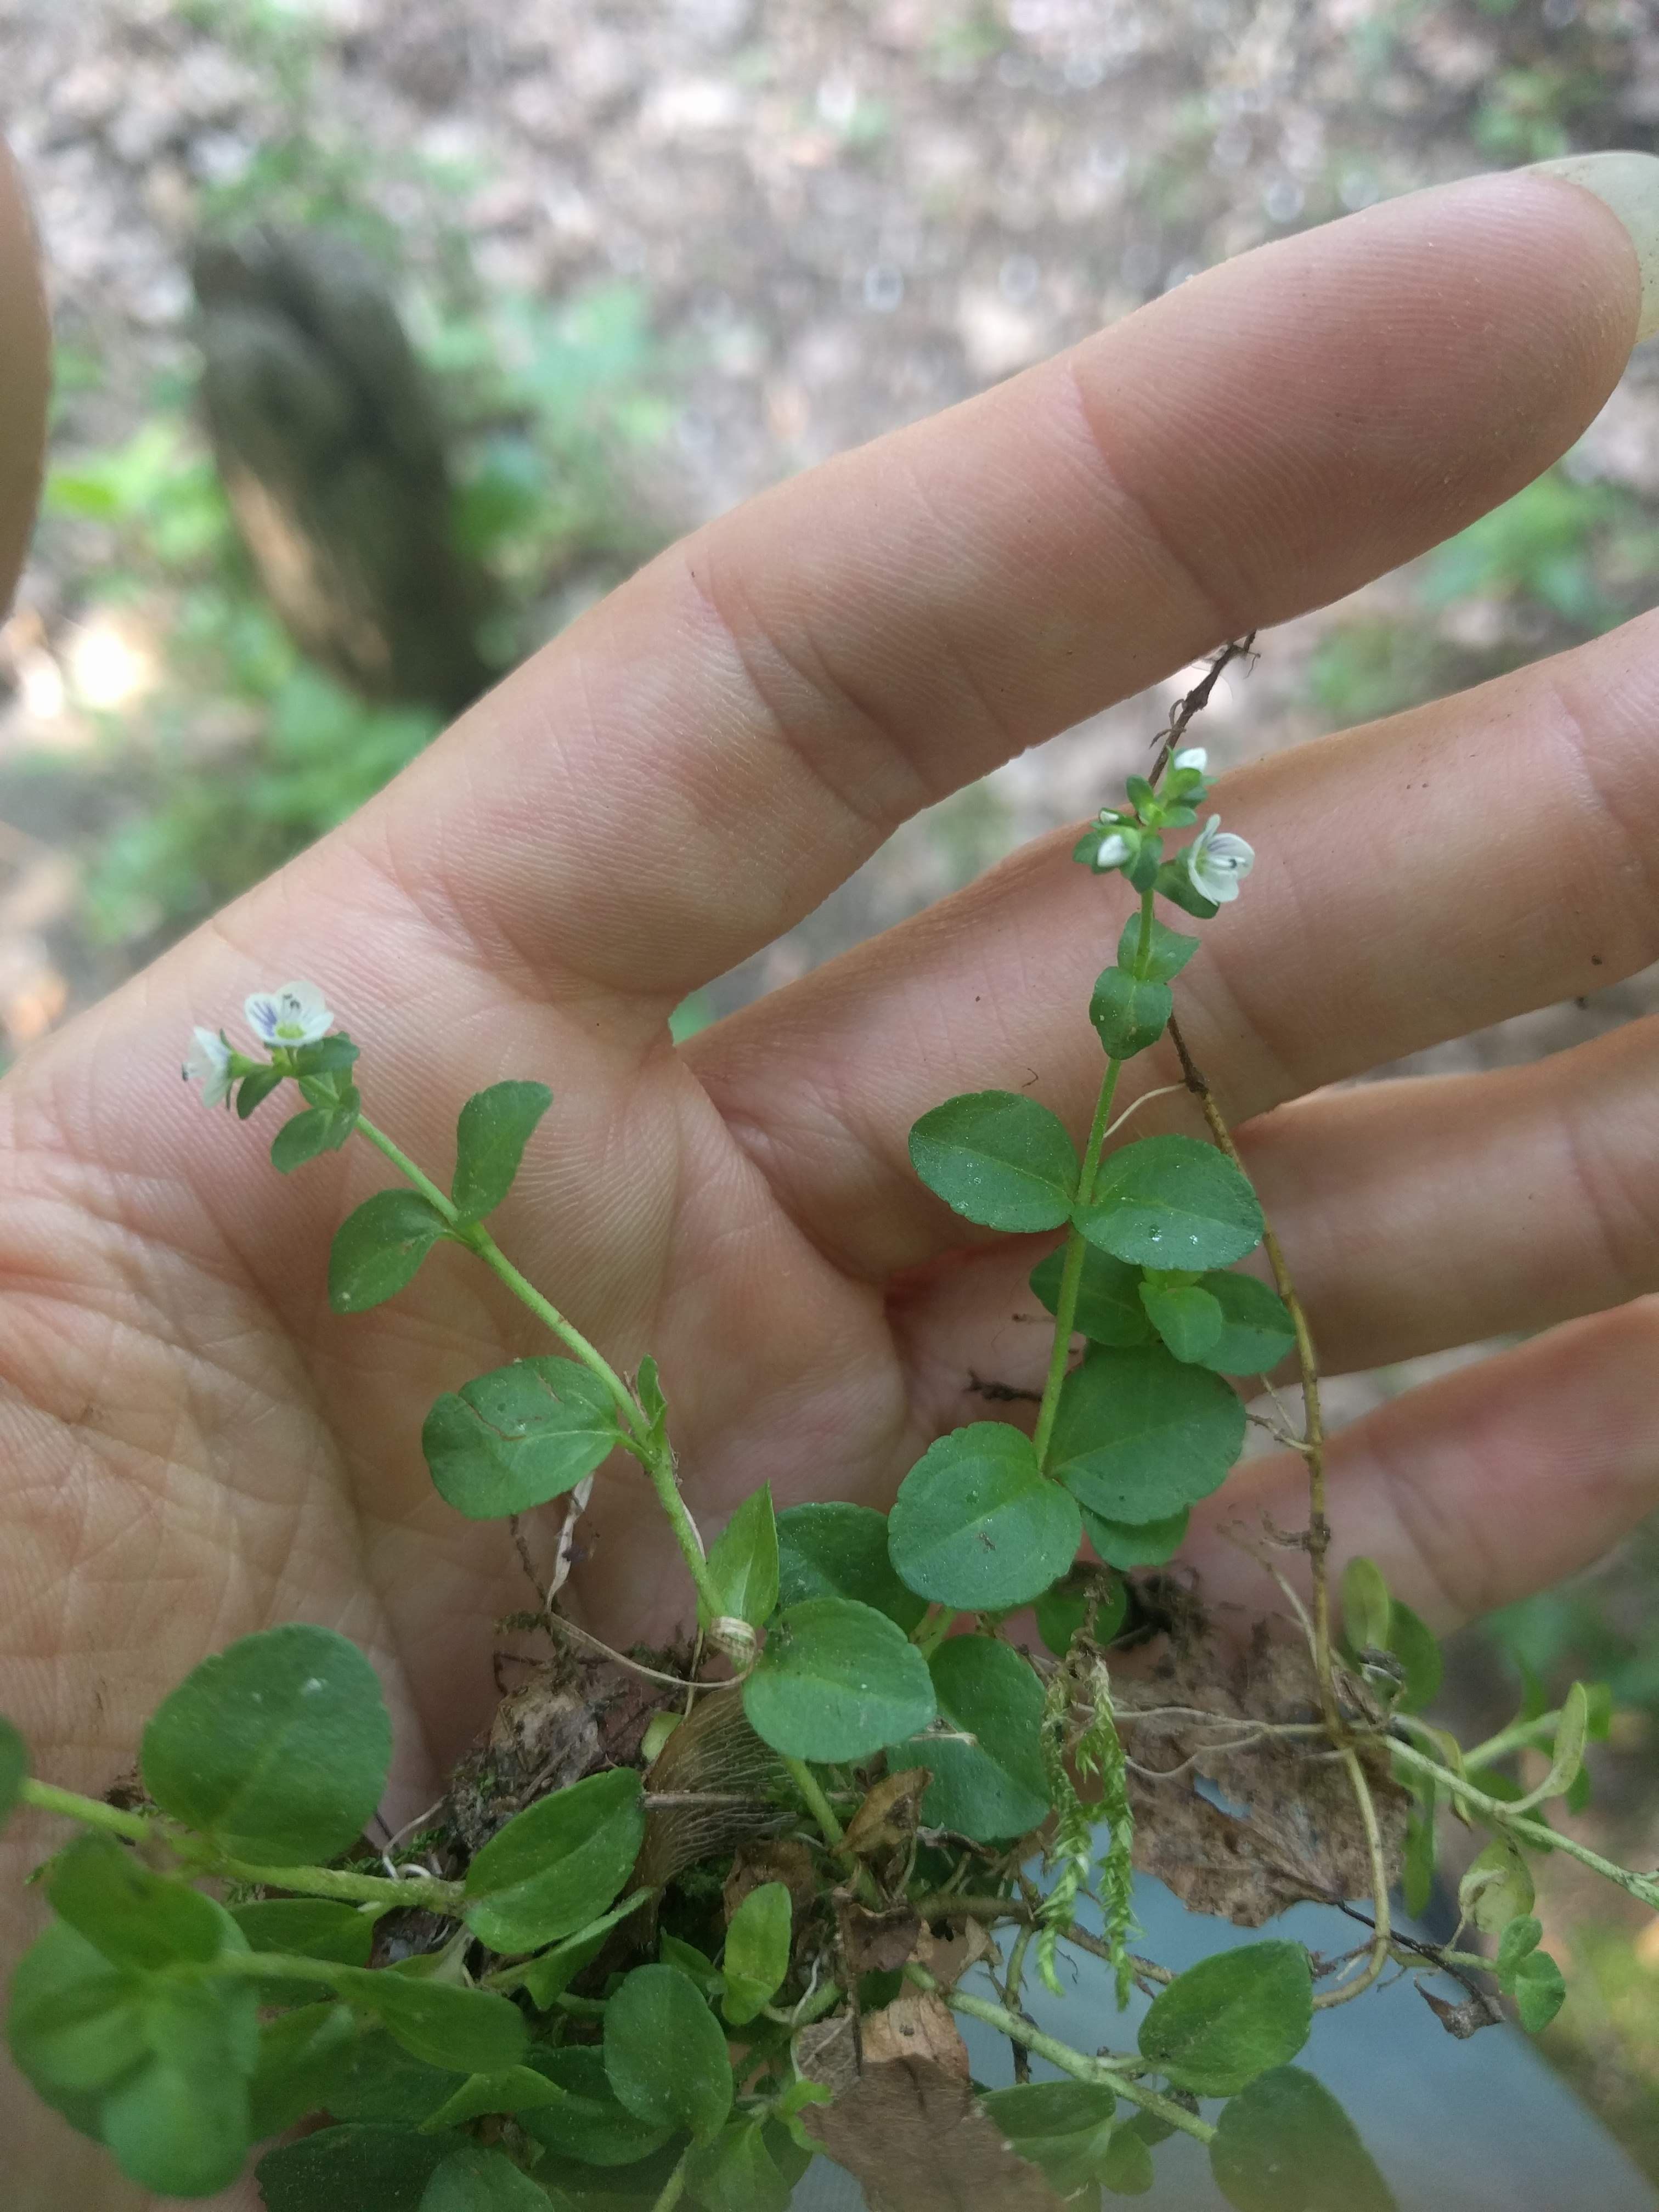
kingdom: Plantae
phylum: Tracheophyta
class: Magnoliopsida
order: Lamiales
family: Plantaginaceae
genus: Veronica
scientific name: Veronica serpyllifolia
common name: Thyme-leaved speedwell
